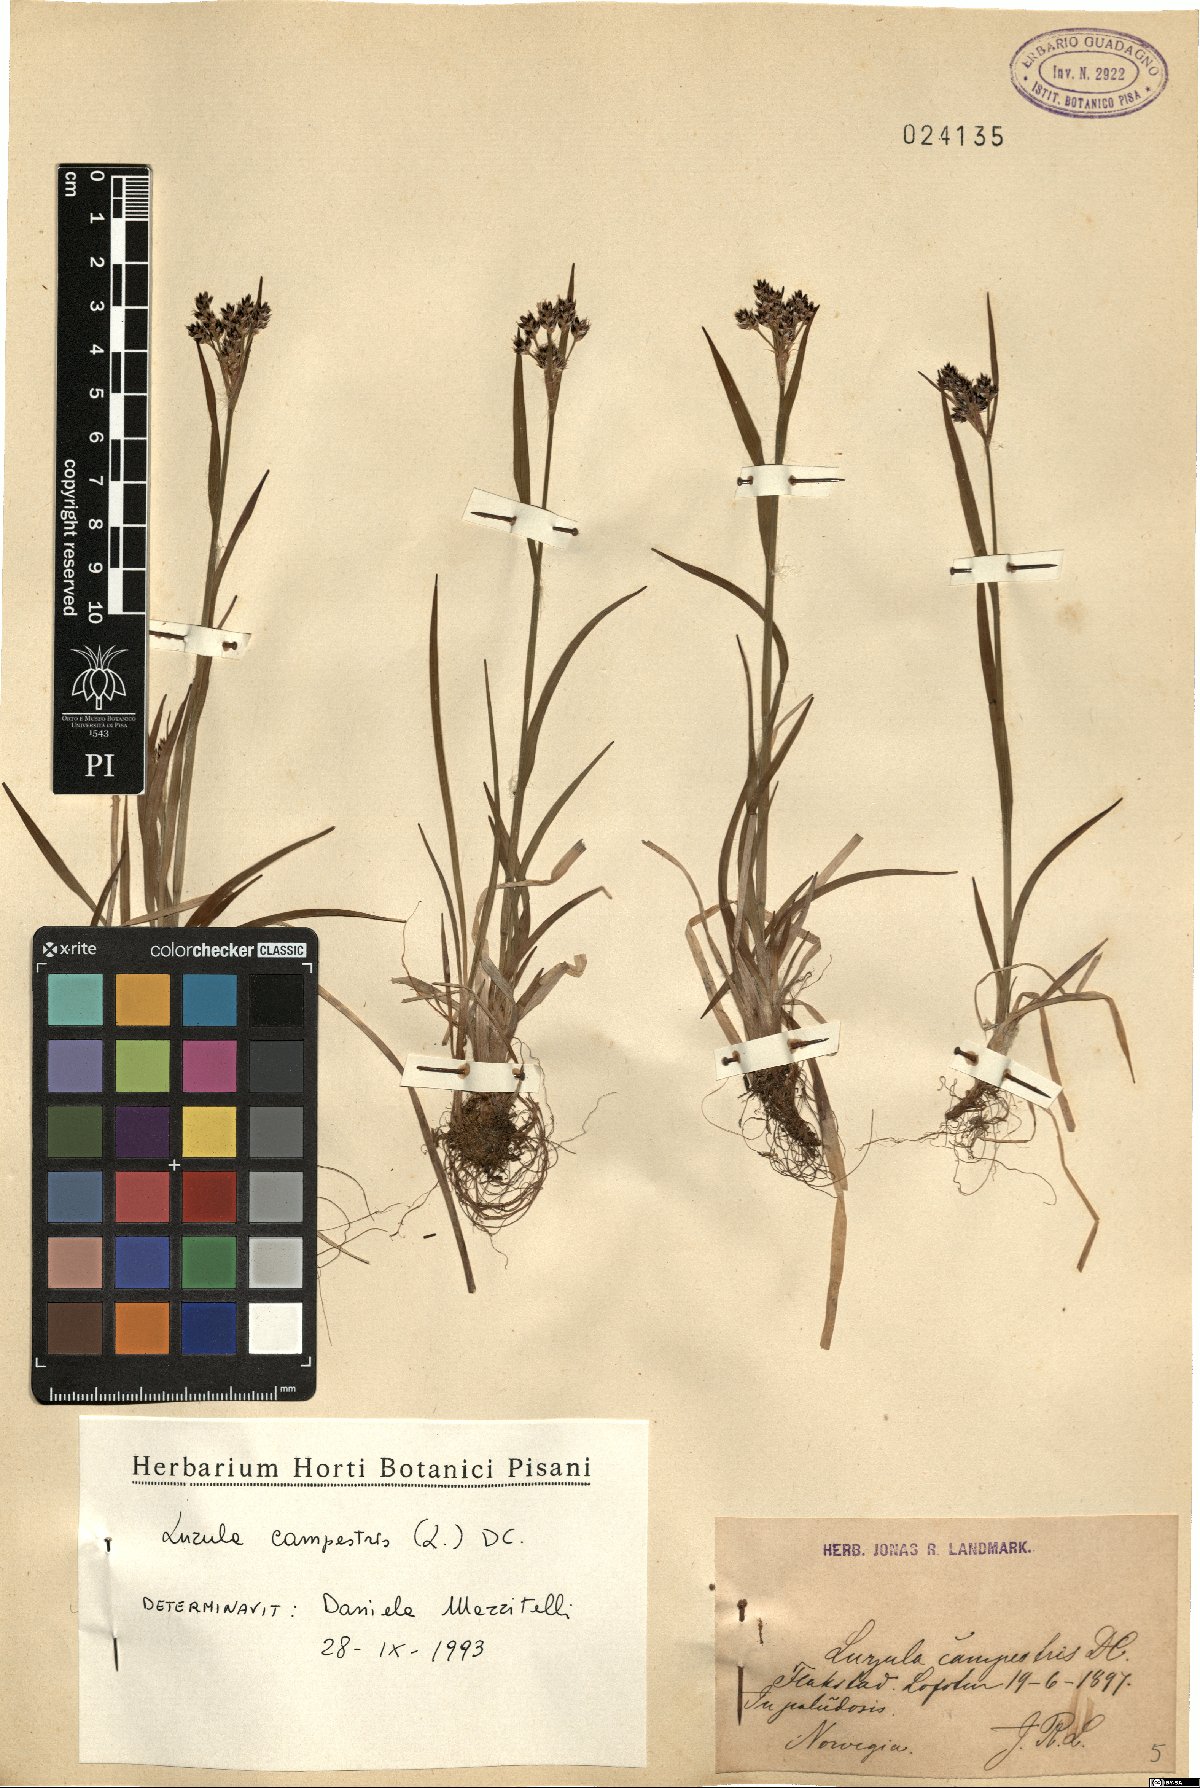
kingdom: Plantae
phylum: Tracheophyta
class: Liliopsida
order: Poales
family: Juncaceae
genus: Luzula
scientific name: Luzula campestris
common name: Field wood-rush
